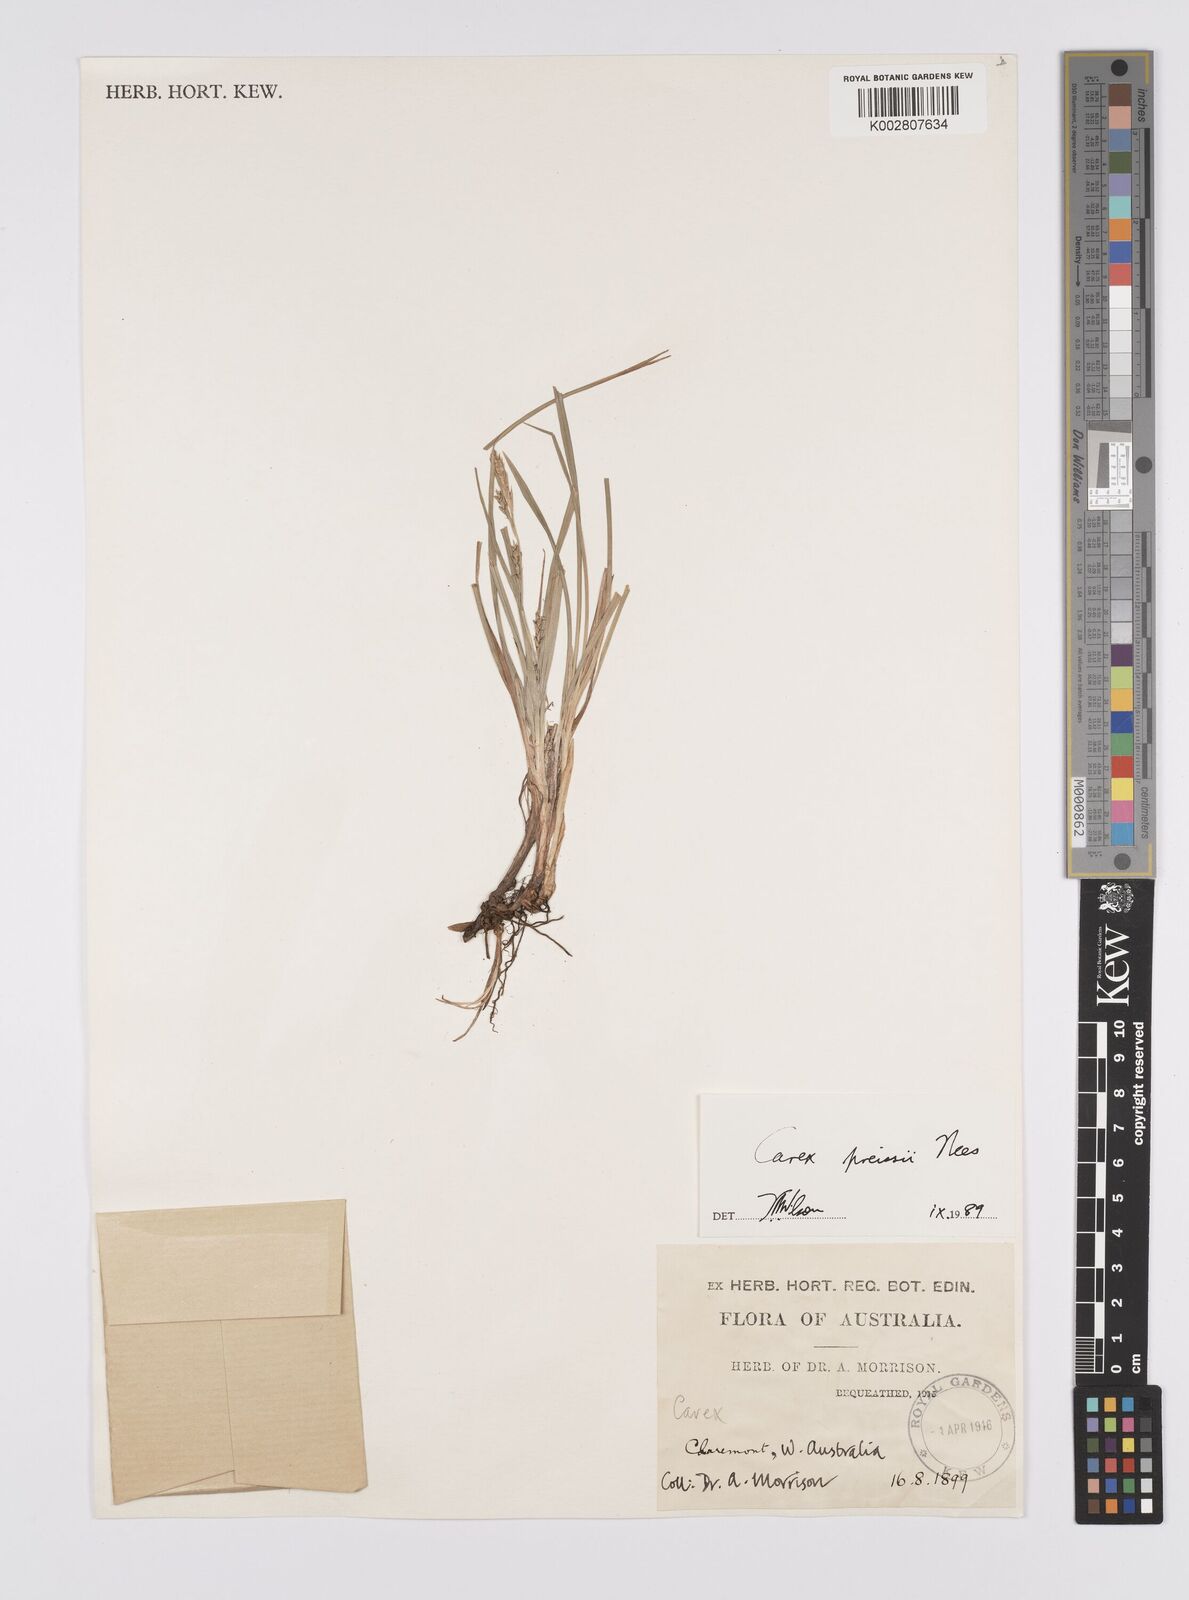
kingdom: Plantae
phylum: Tracheophyta
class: Liliopsida
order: Poales
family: Cyperaceae
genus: Carex
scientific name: Carex preissii
